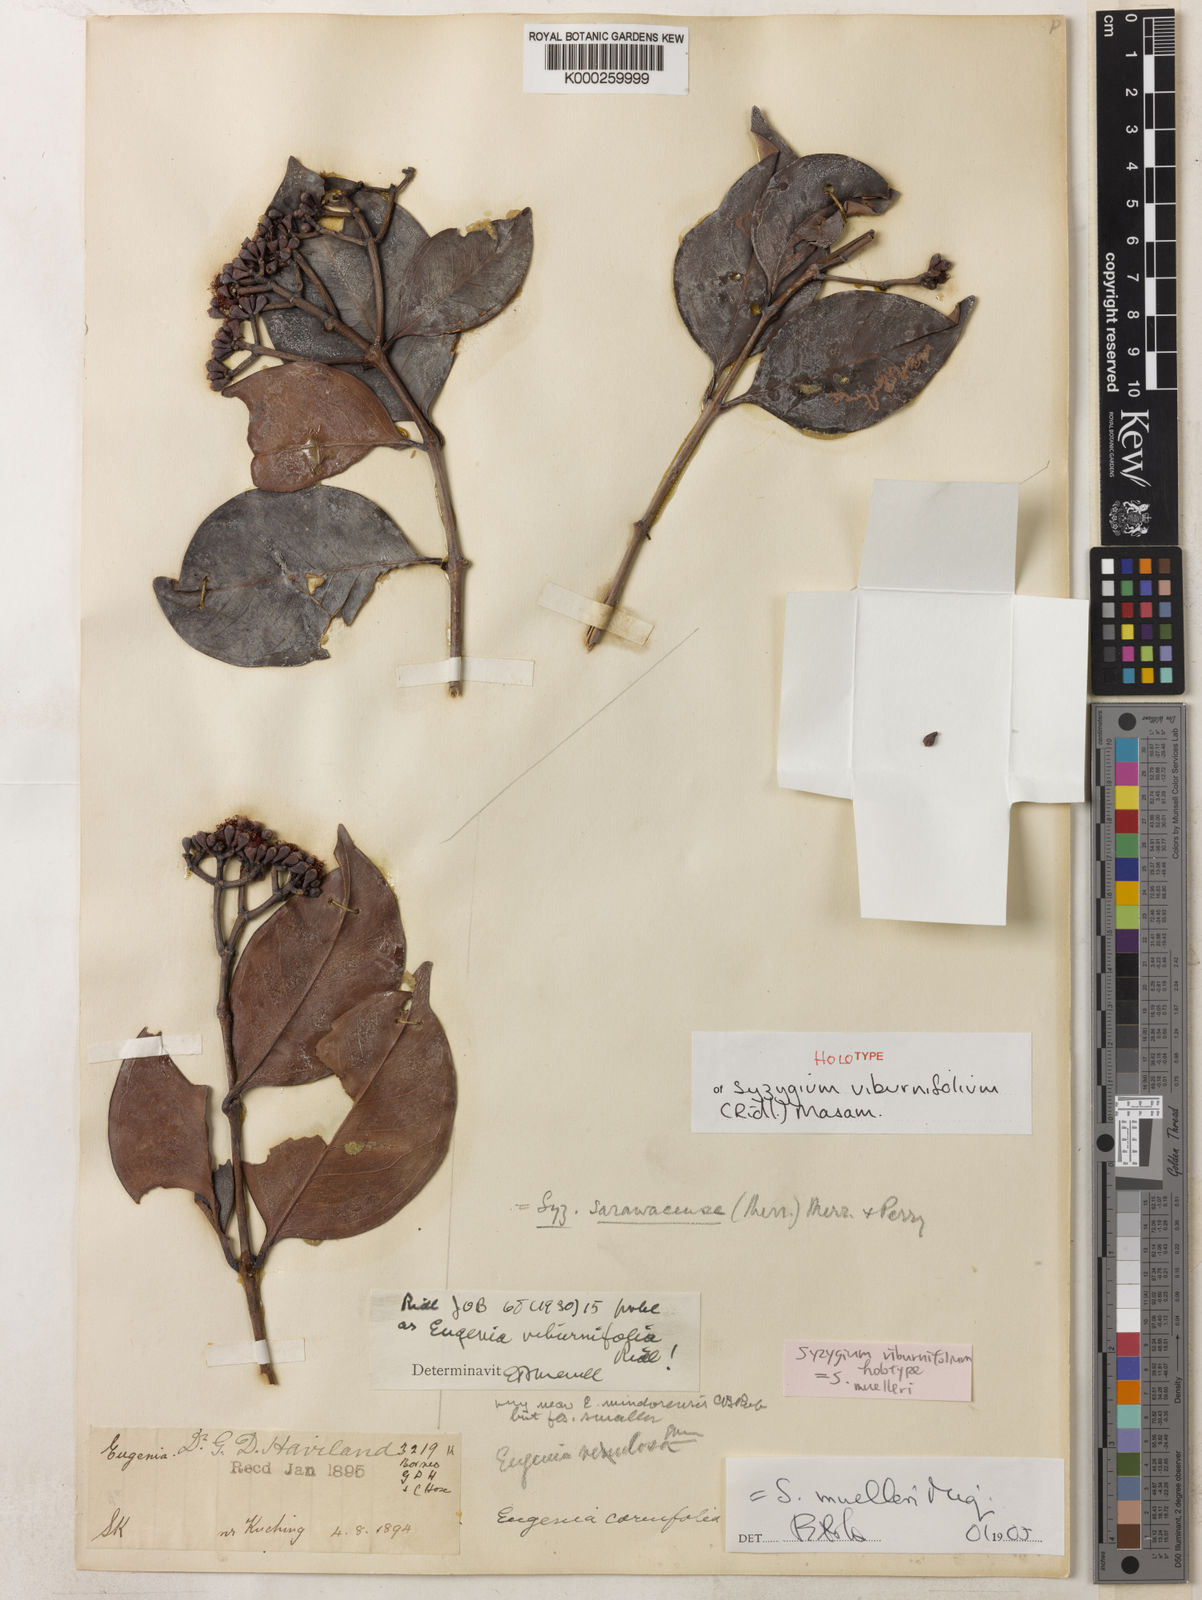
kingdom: Plantae
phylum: Tracheophyta
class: Magnoliopsida
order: Myrtales
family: Myrtaceae
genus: Syzygium
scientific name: Syzygium muelleri
